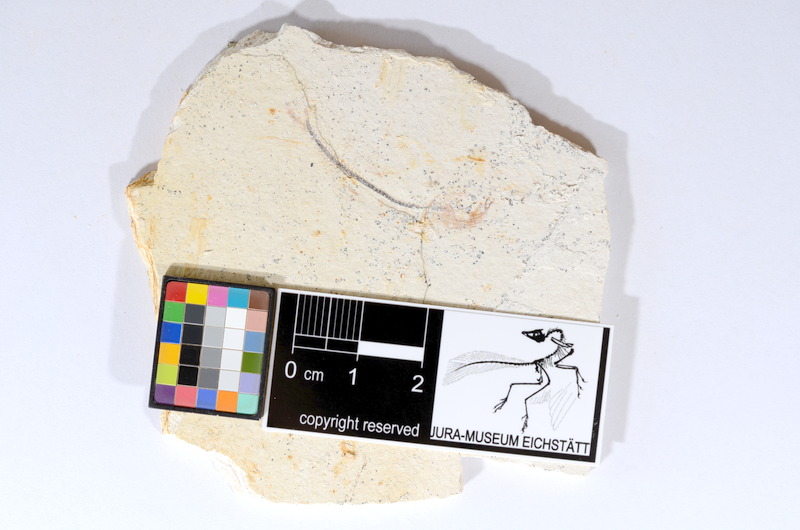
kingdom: Animalia
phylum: Chordata
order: Salmoniformes
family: Orthogonikleithridae
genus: Orthogonikleithrus
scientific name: Orthogonikleithrus hoelli
